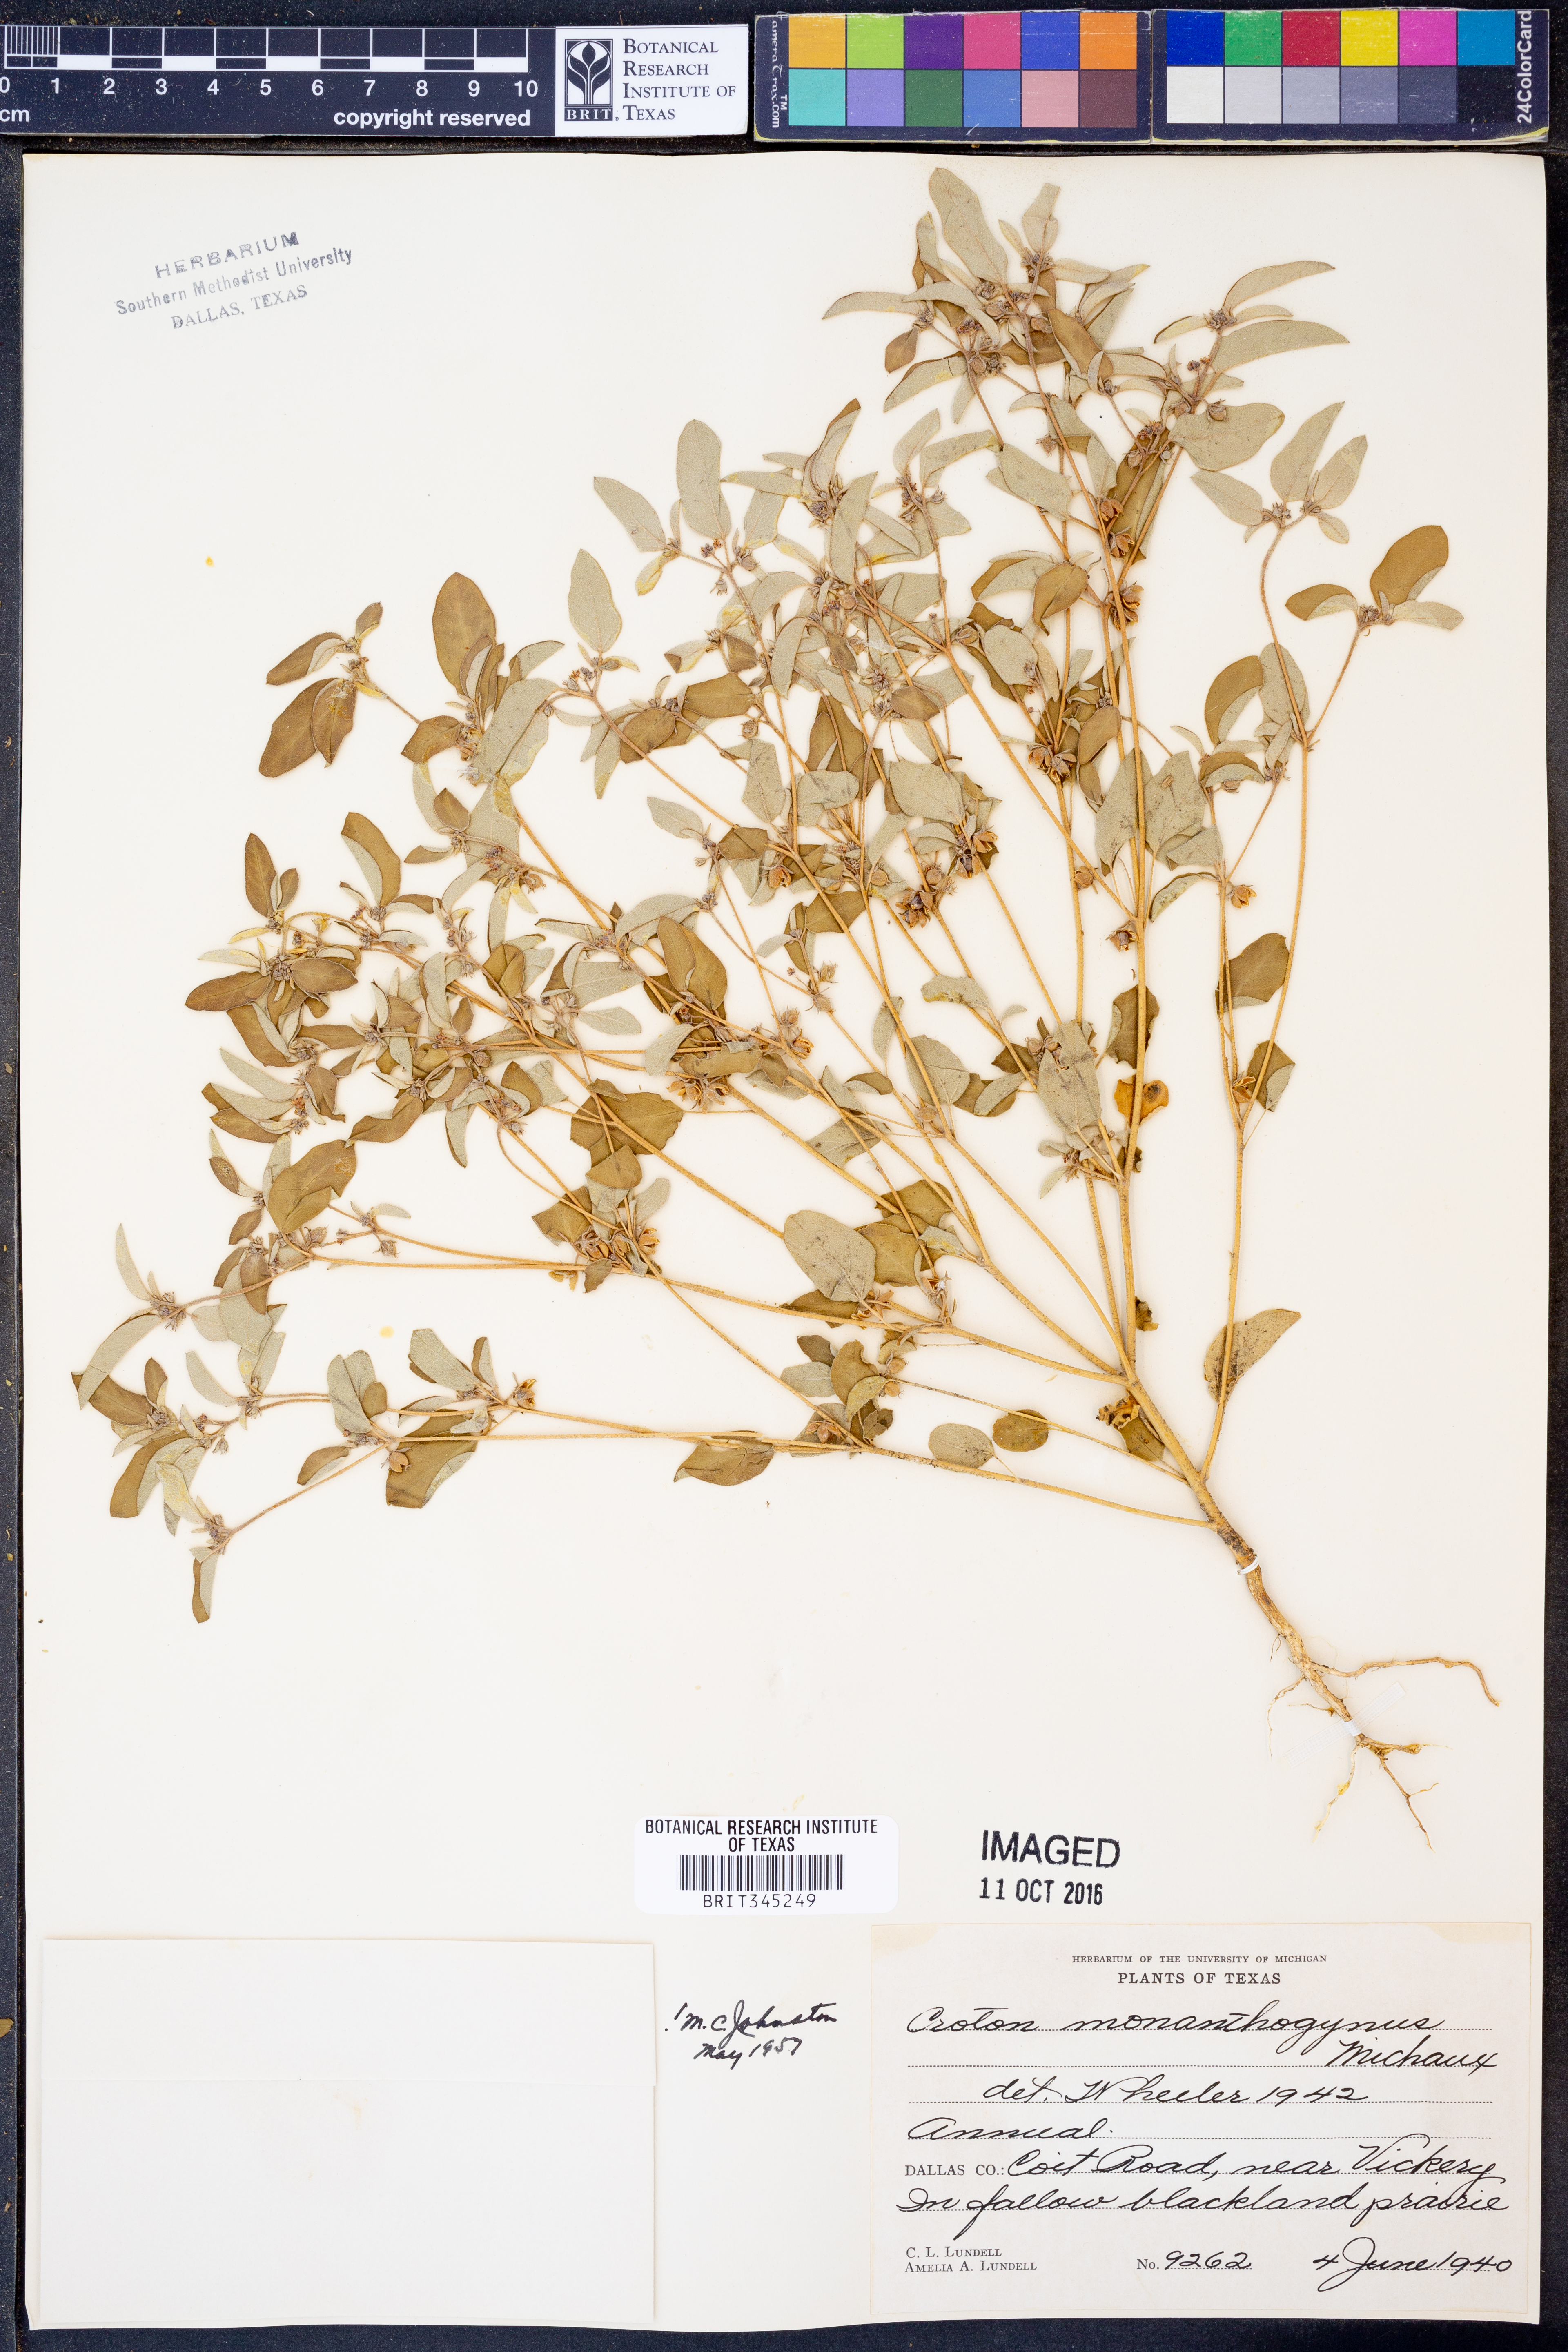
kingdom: Plantae
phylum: Tracheophyta
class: Magnoliopsida
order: Malpighiales
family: Euphorbiaceae
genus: Croton
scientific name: Croton monanthogynus
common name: One-seed croton
